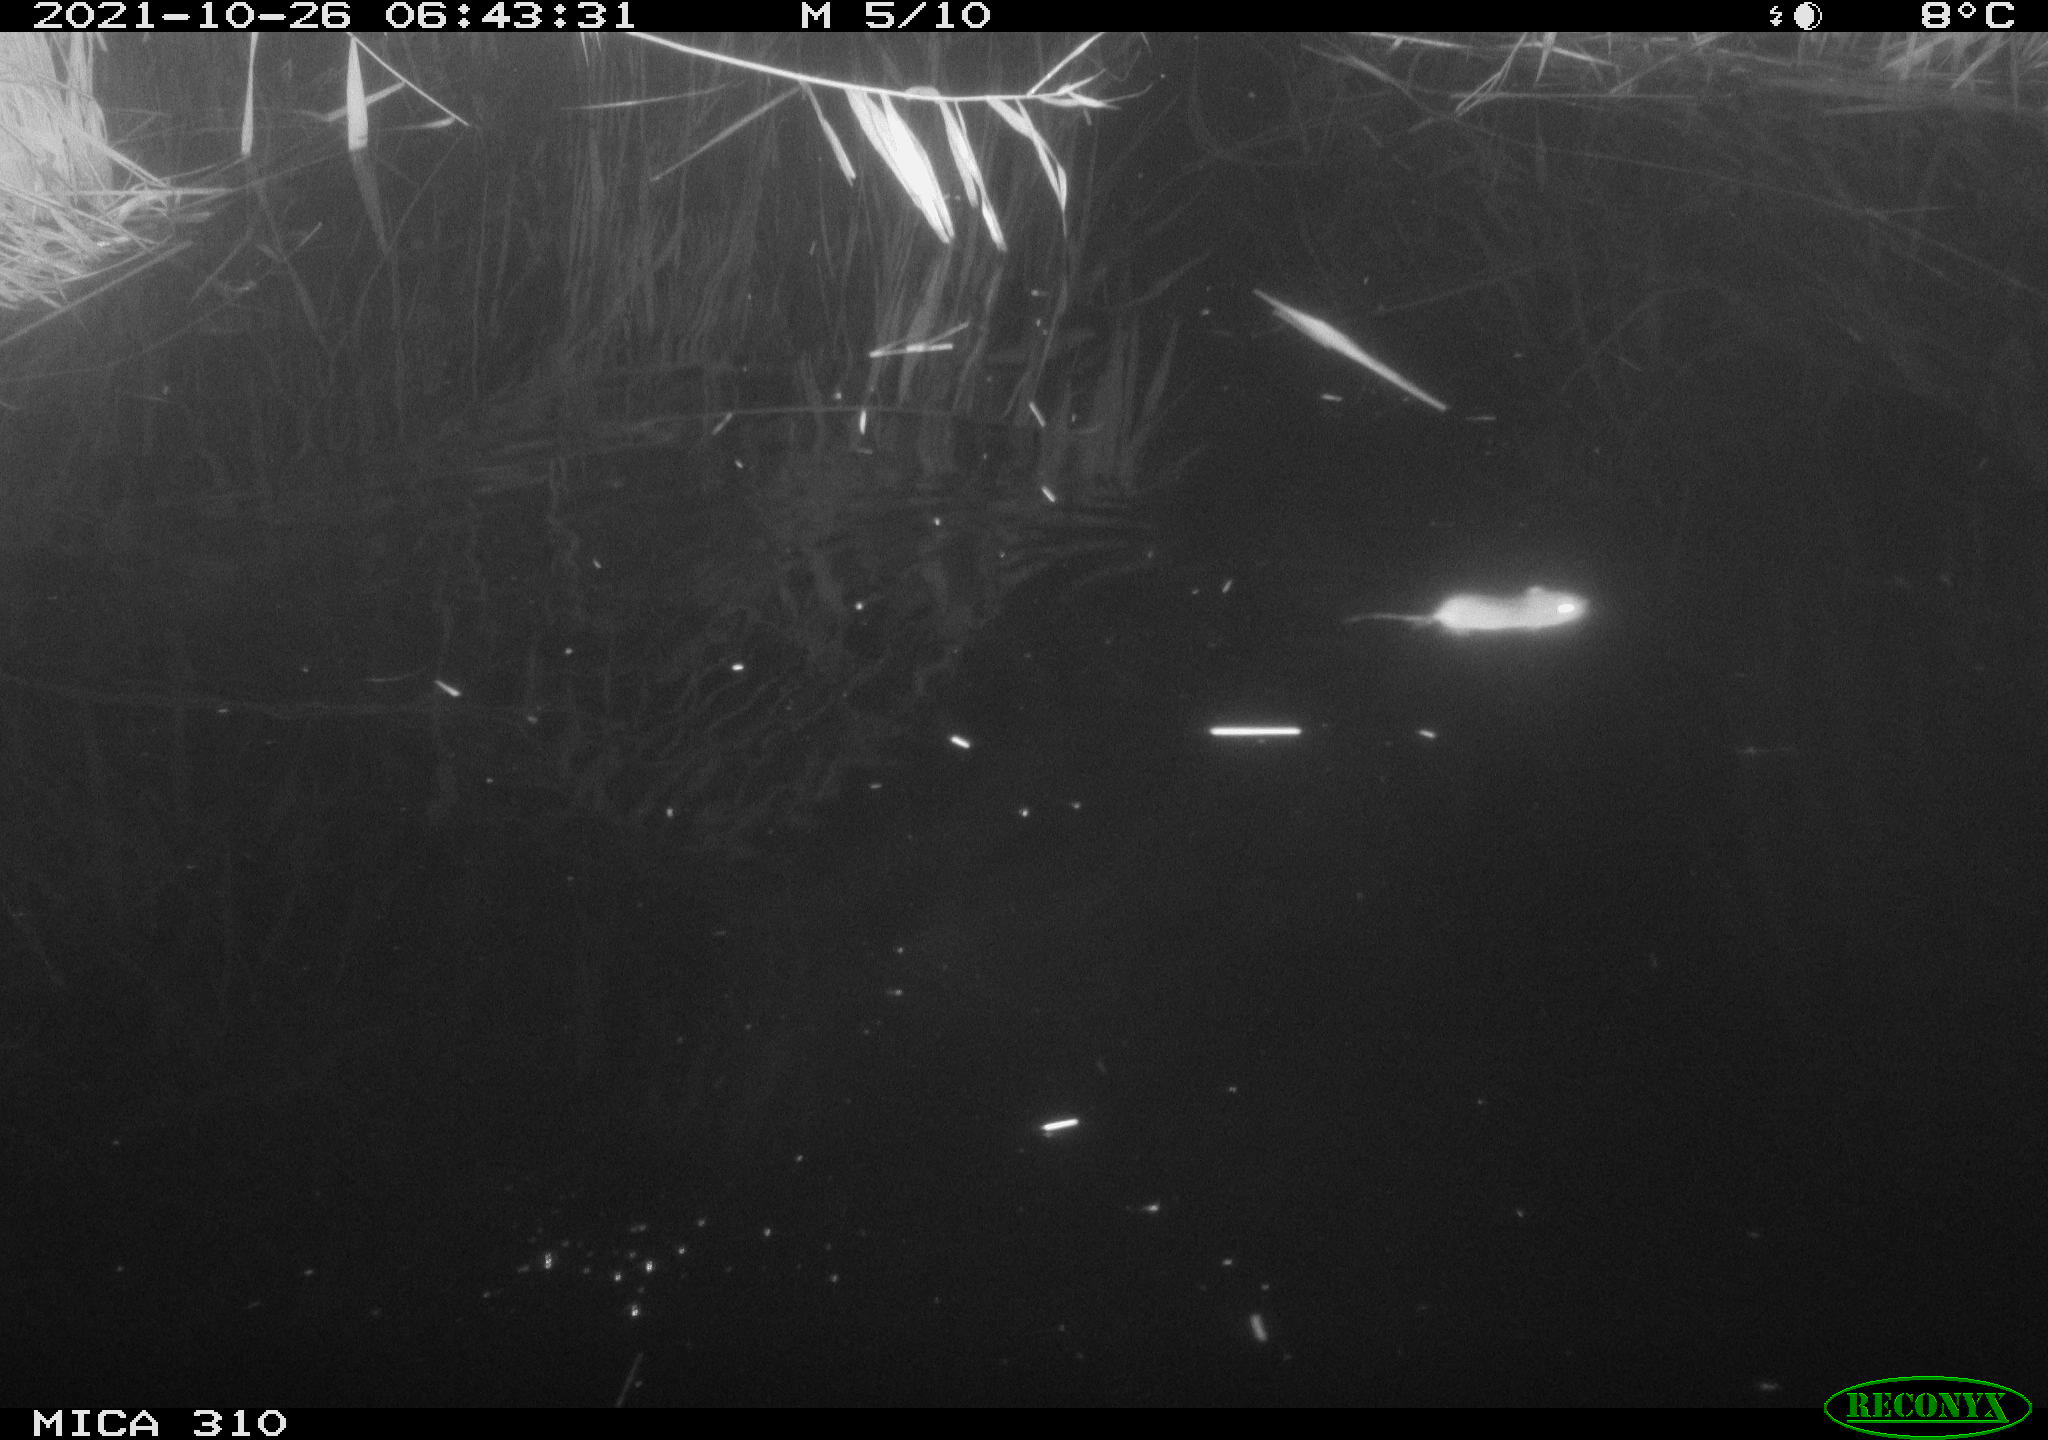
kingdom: Animalia
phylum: Chordata
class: Mammalia
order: Rodentia
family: Muridae
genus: Rattus
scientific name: Rattus norvegicus
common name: Brown rat
